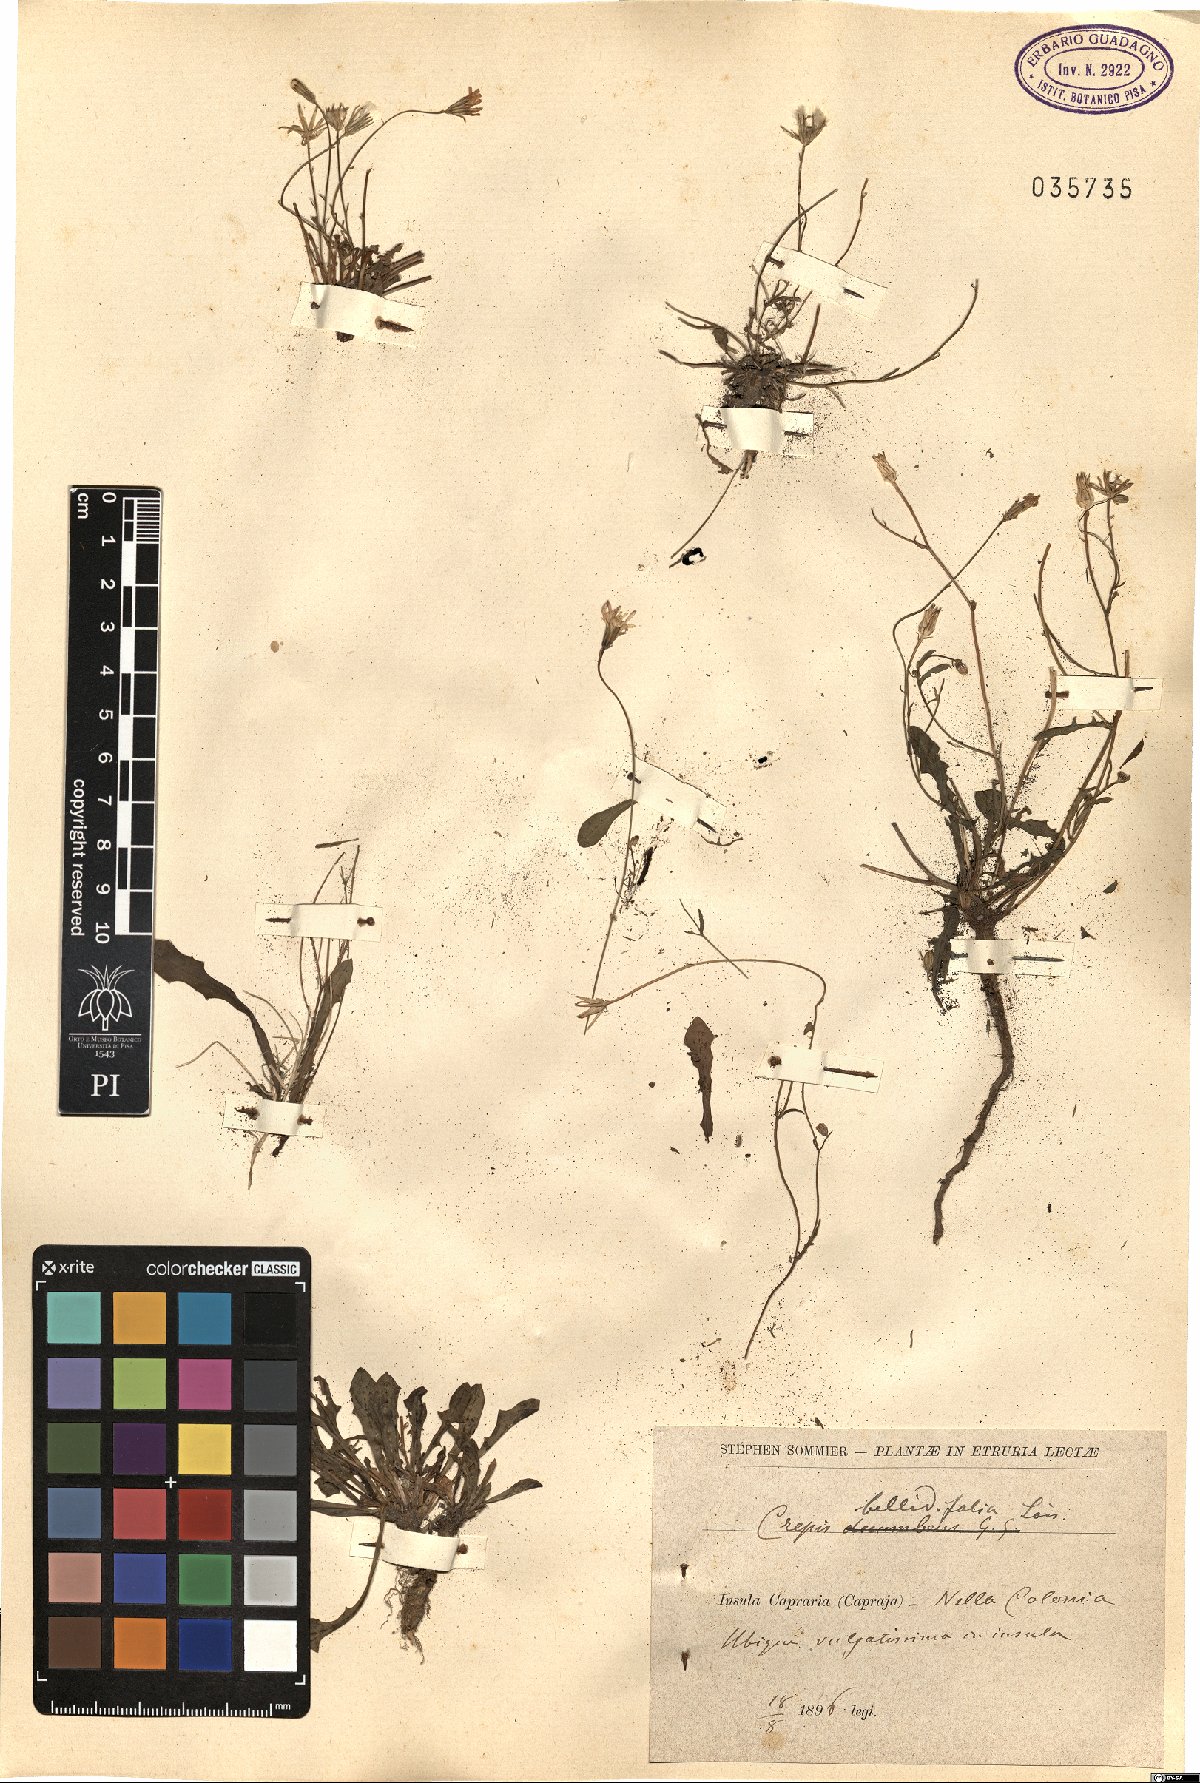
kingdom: Plantae
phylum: Tracheophyta
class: Magnoliopsida
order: Asterales
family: Asteraceae
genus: Crepis
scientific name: Crepis bellidifolia
